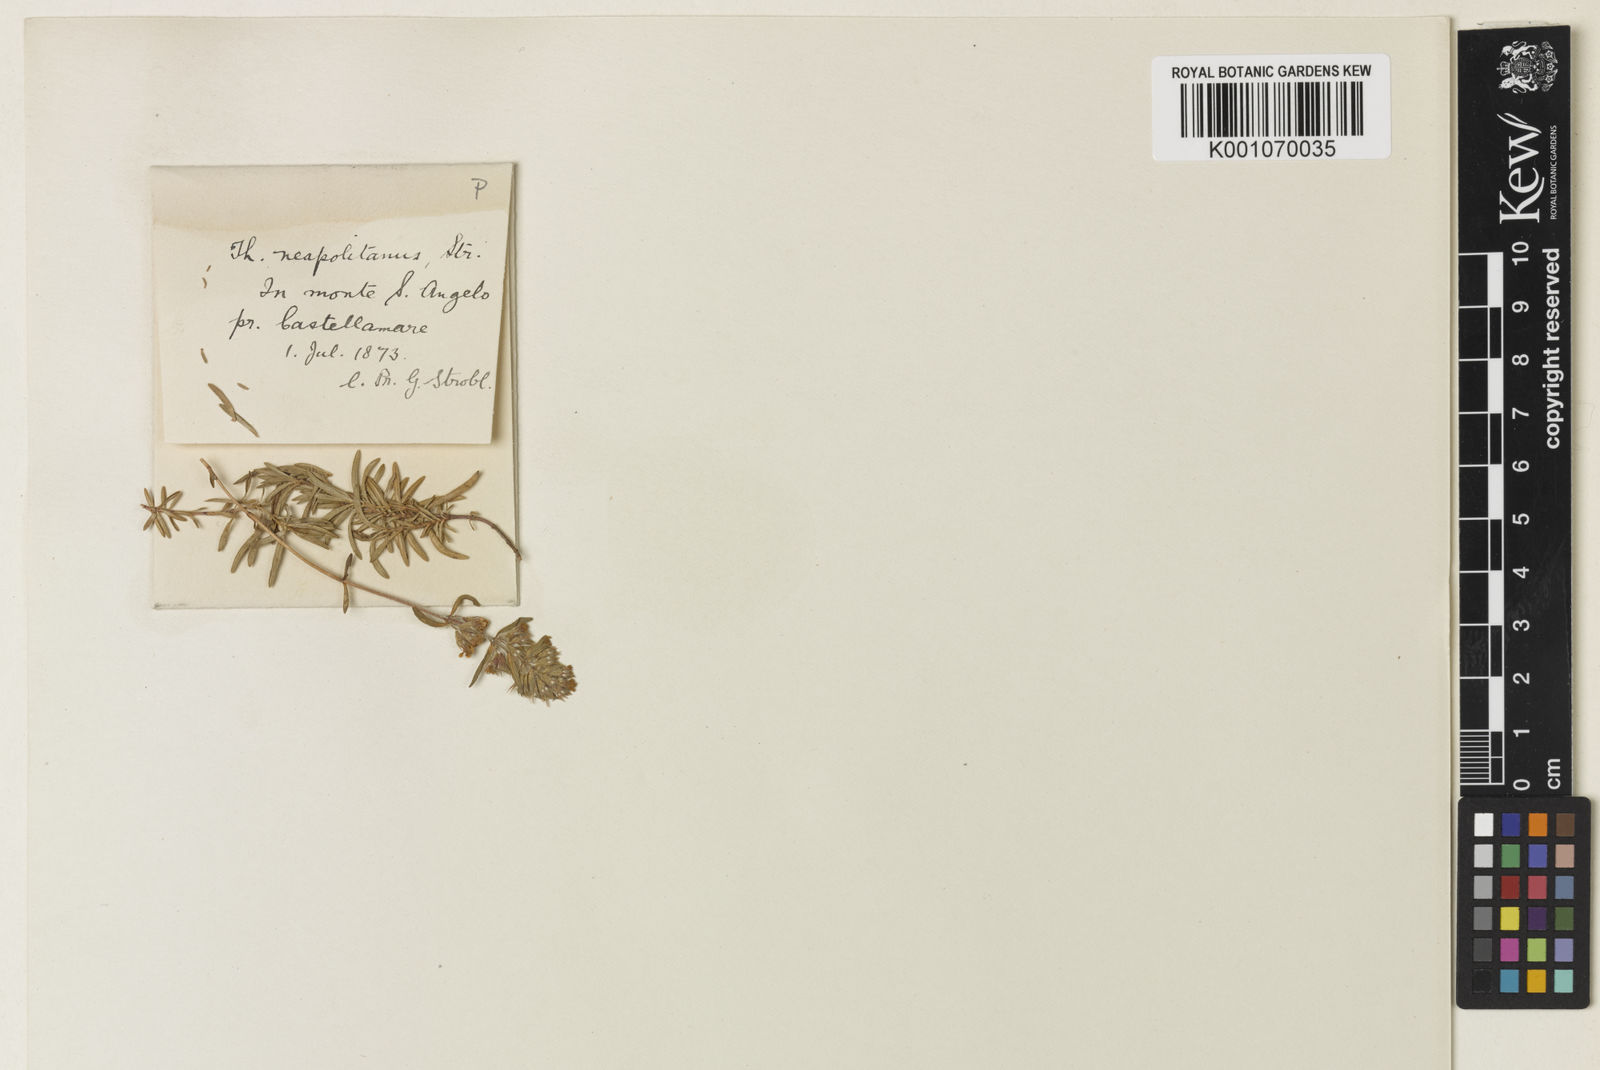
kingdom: Plantae
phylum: Tracheophyta
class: Magnoliopsida
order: Lamiales
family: Lamiaceae
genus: Thymus
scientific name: Thymus striatus
